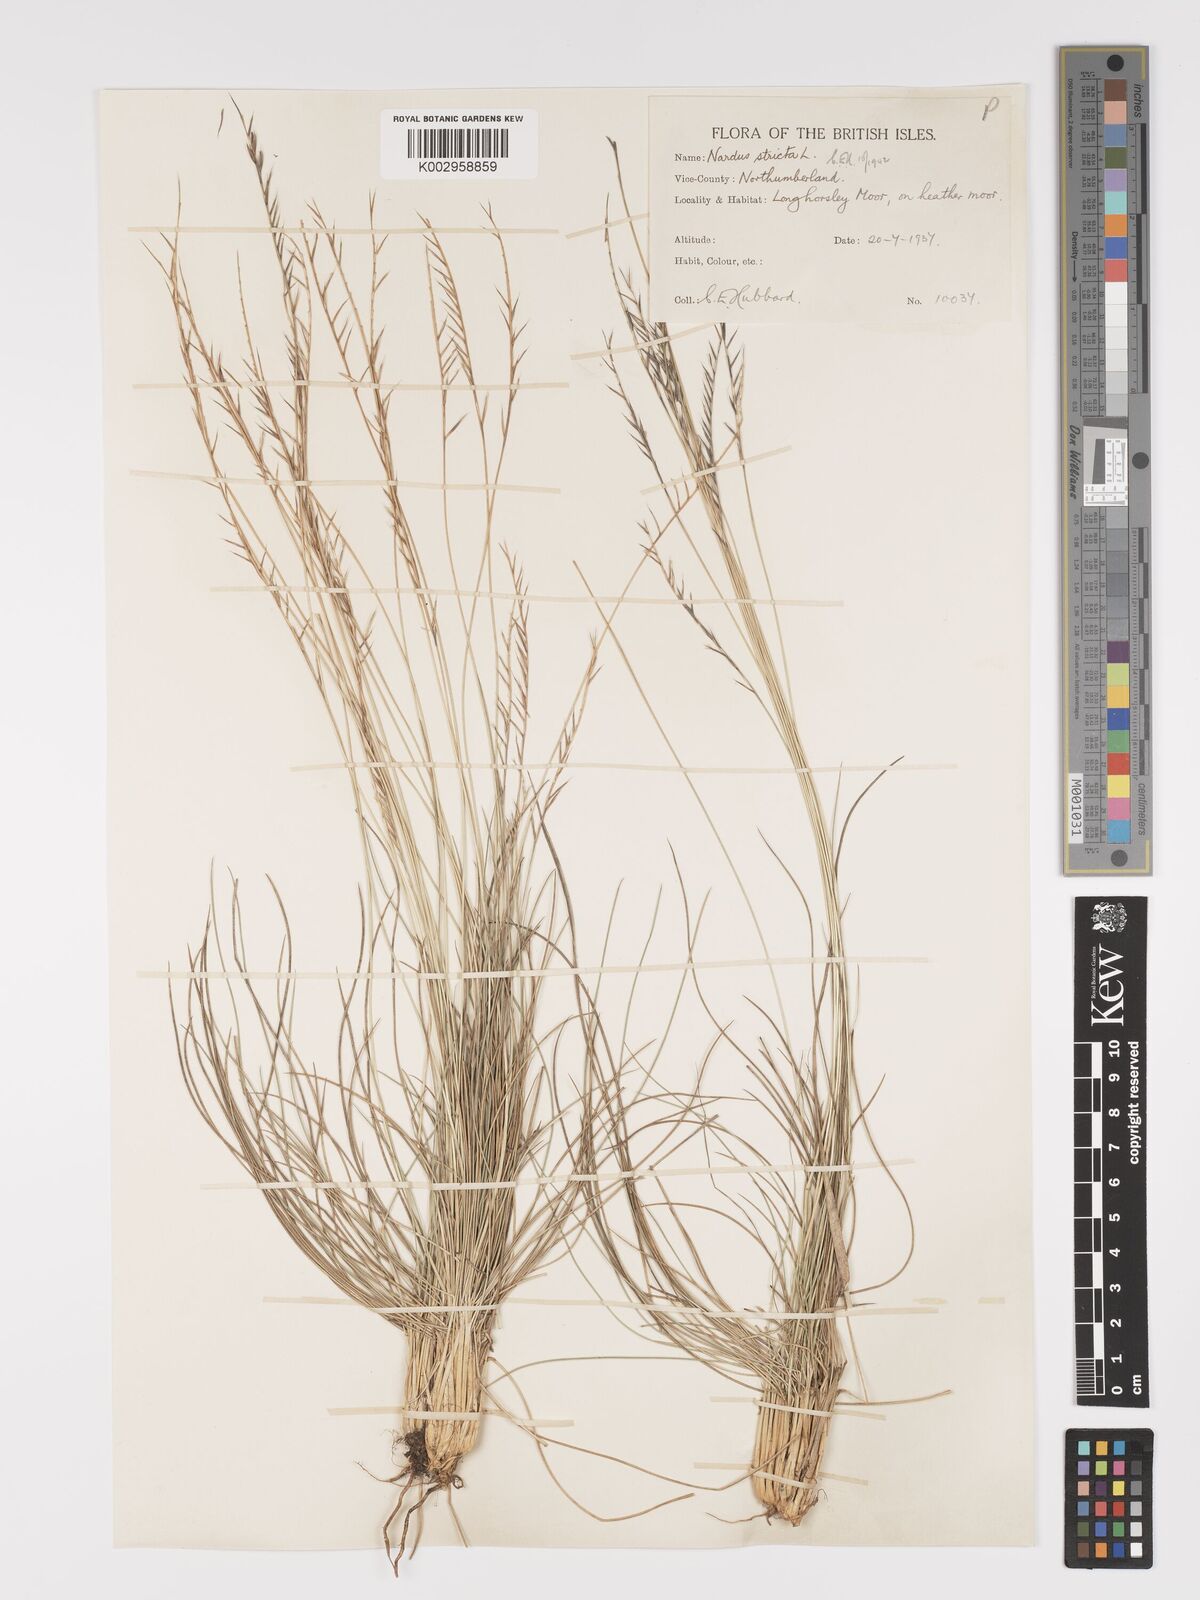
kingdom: Plantae
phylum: Tracheophyta
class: Liliopsida
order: Poales
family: Poaceae
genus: Nardus
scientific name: Nardus stricta
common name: Mat-grass
